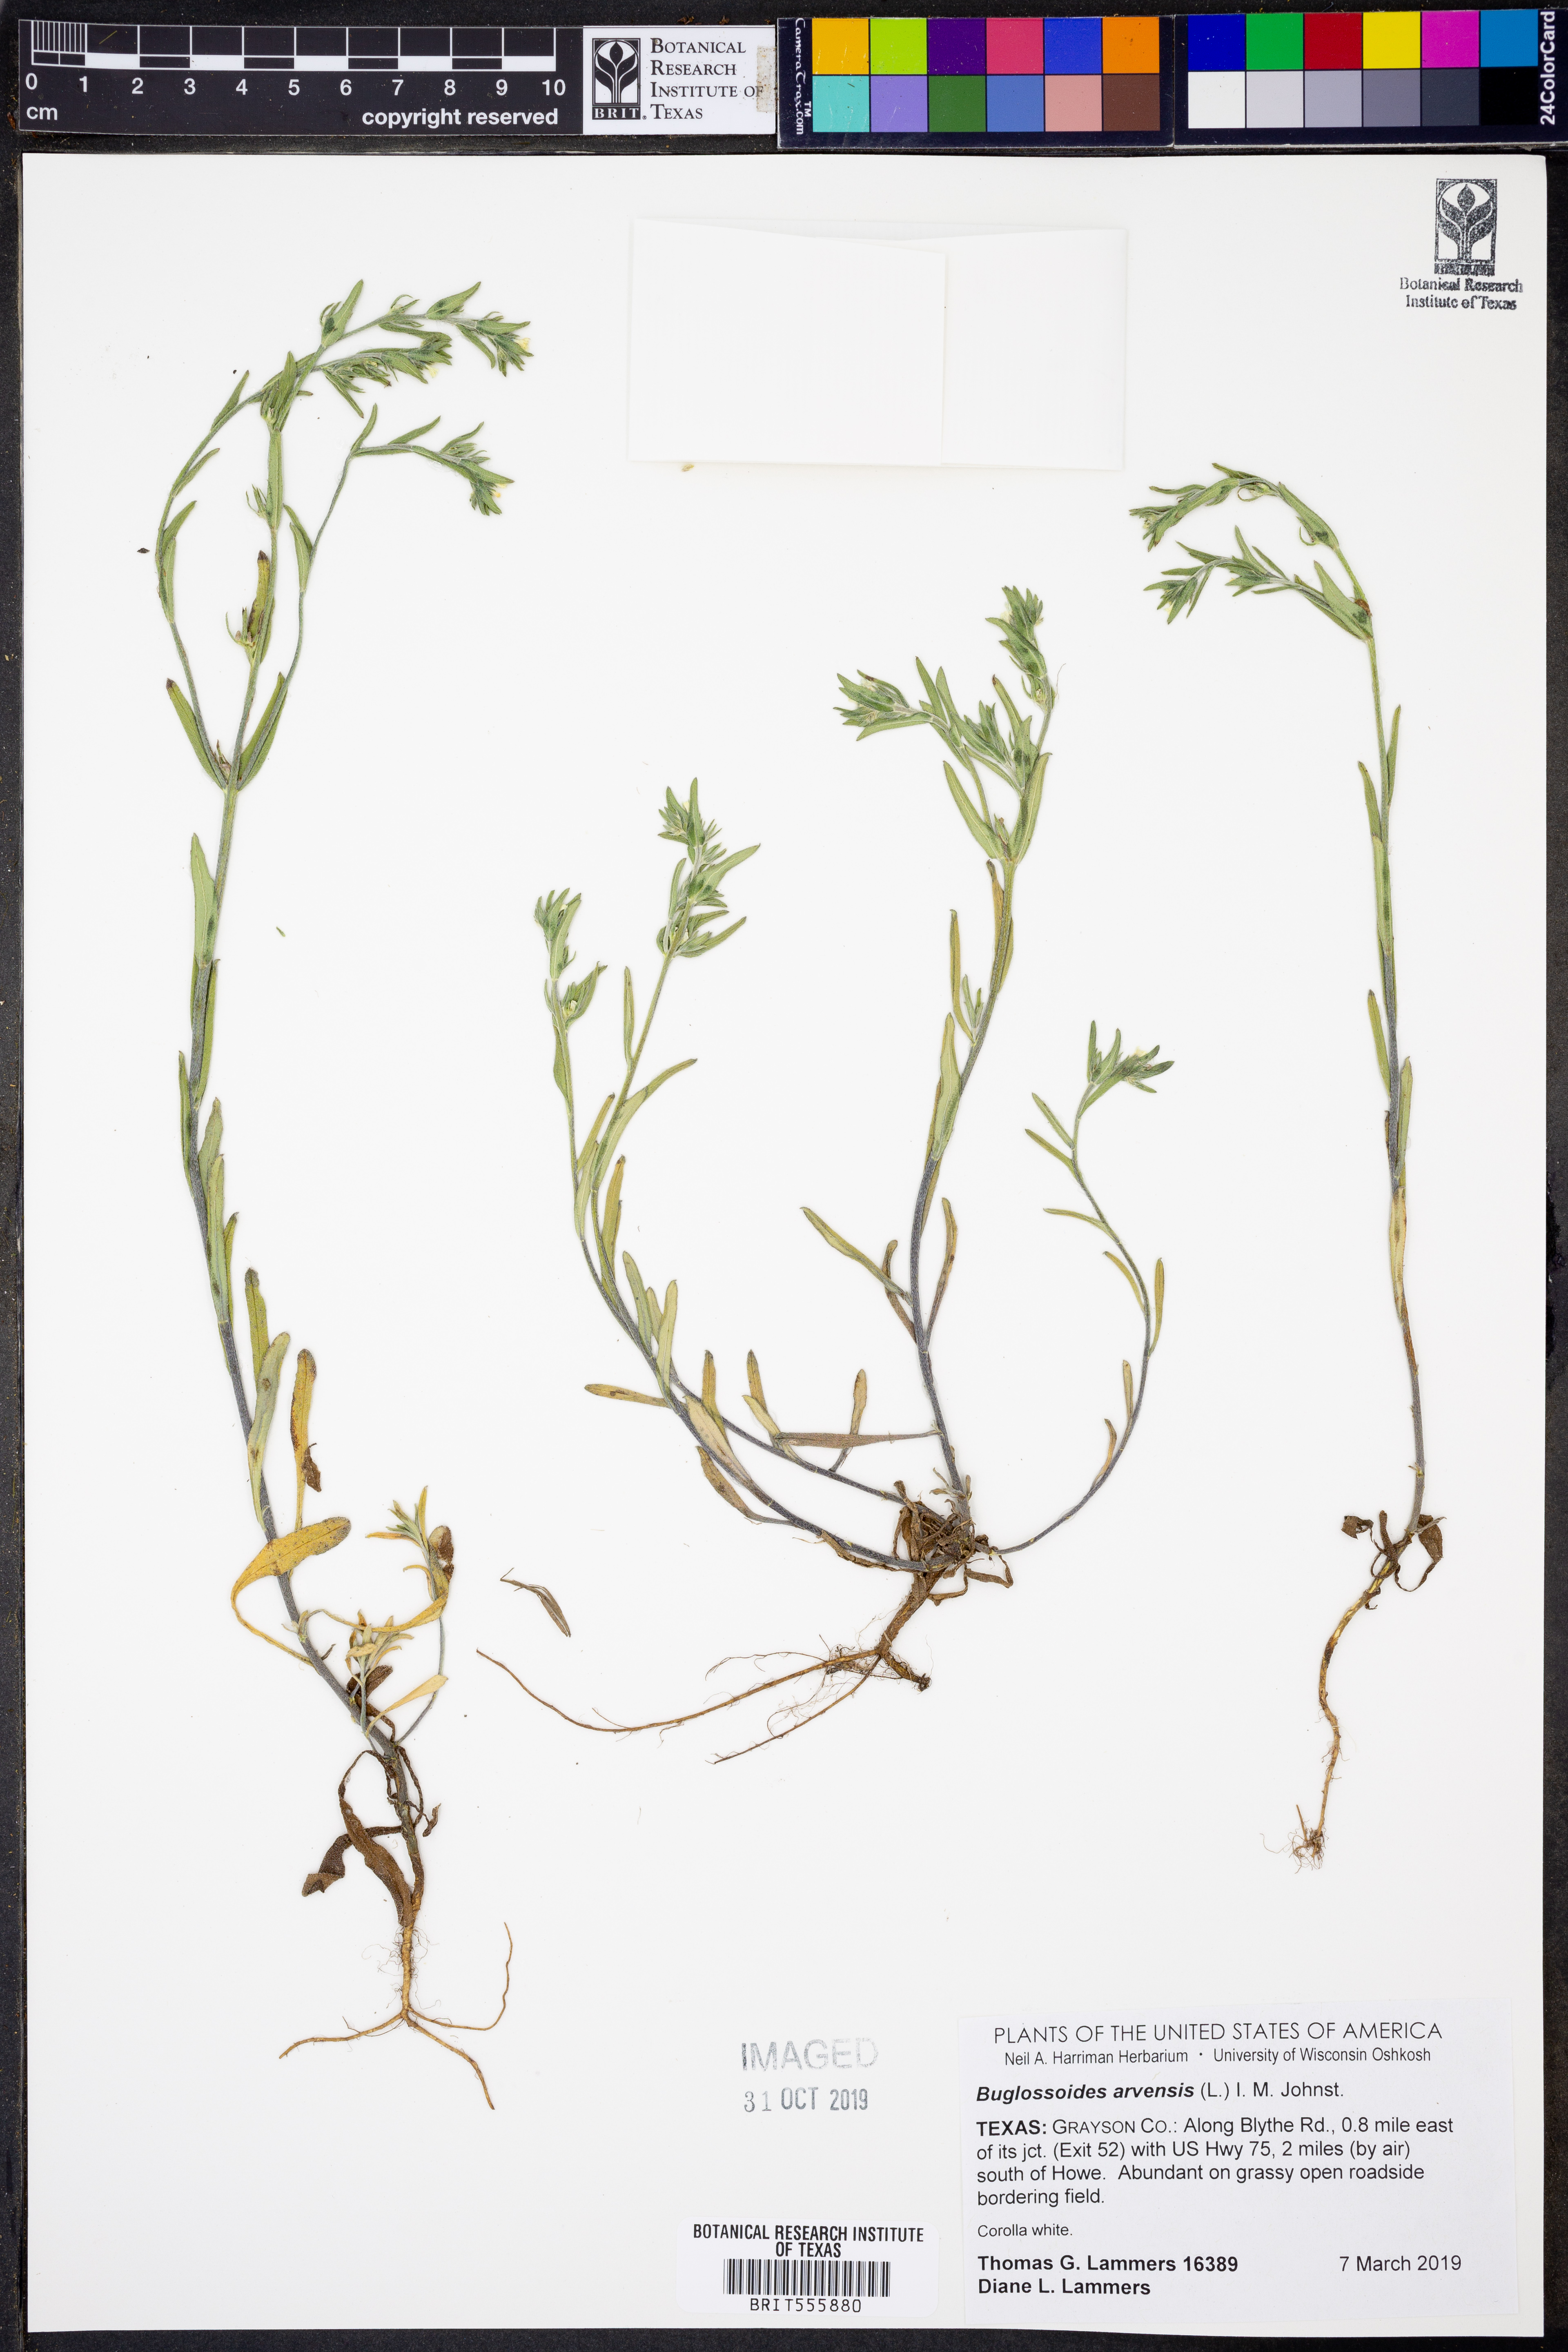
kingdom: Plantae
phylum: Tracheophyta
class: Magnoliopsida
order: Boraginales
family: Boraginaceae
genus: Buglossoides
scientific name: Buglossoides arvensis
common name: Corn gromwell
